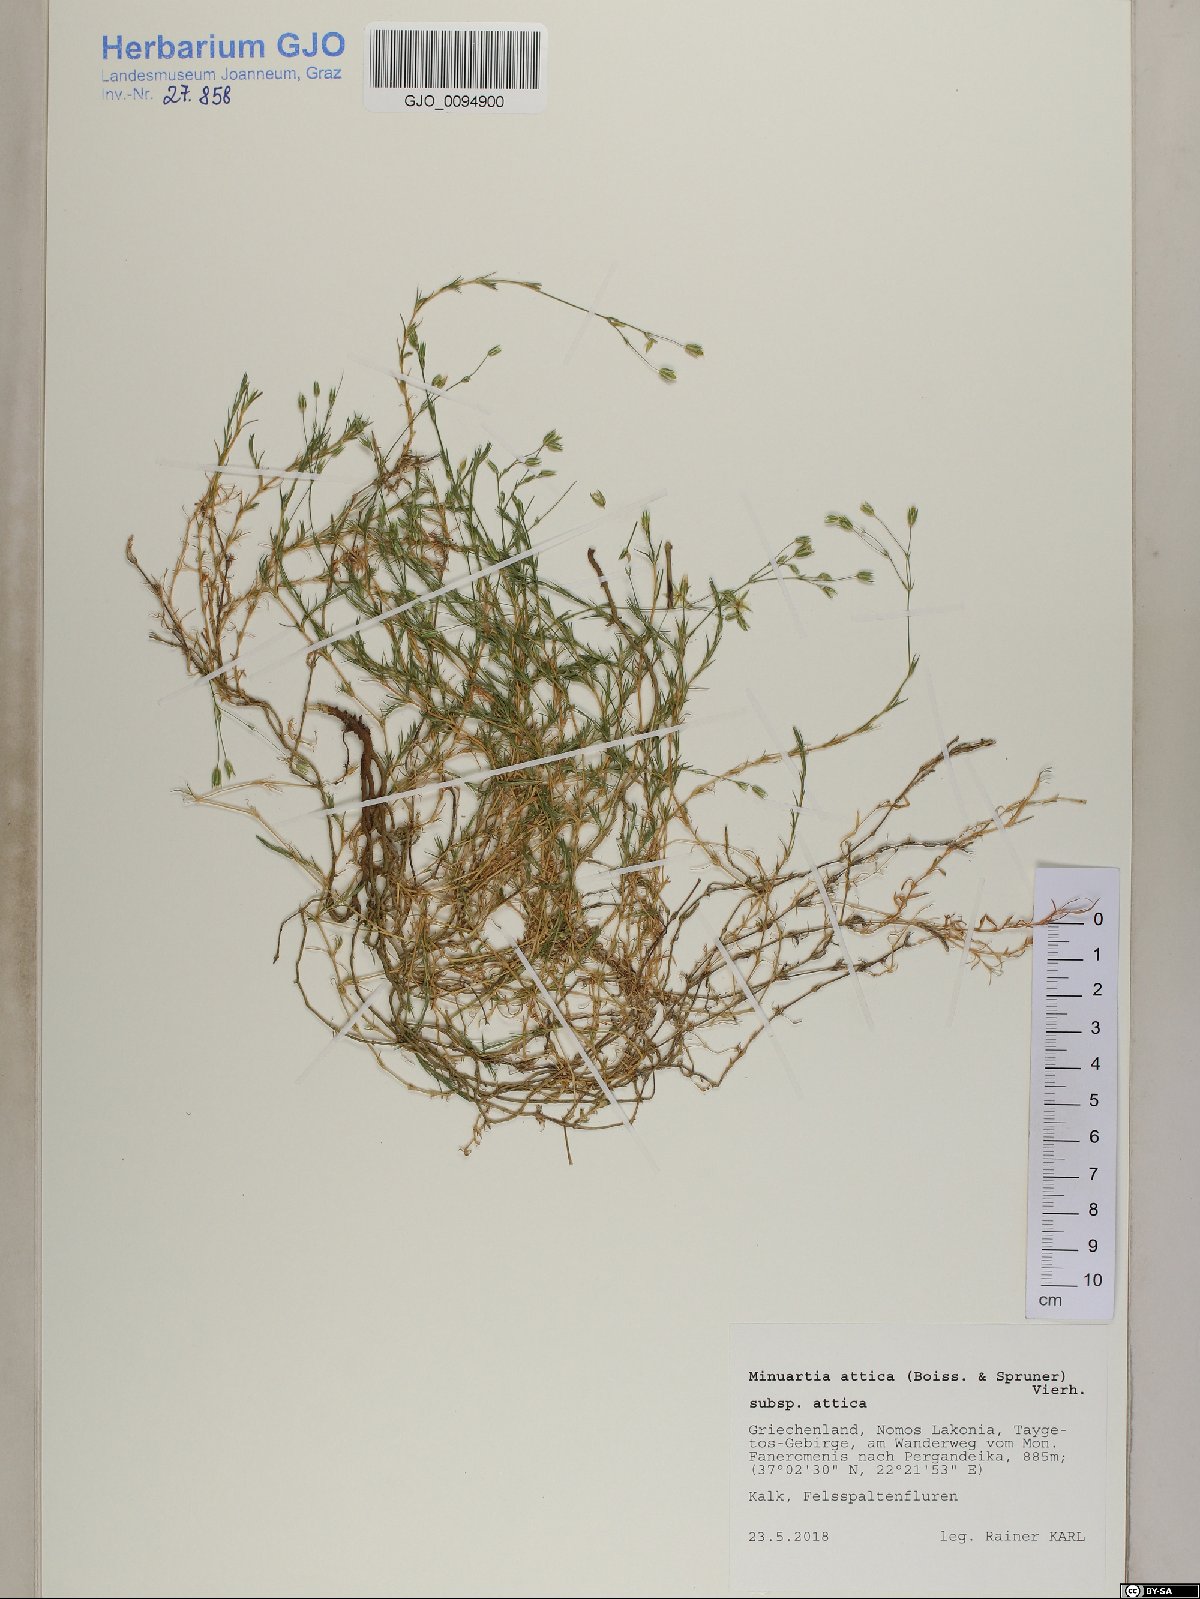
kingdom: Plantae
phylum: Tracheophyta
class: Magnoliopsida
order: Caryophyllales
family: Caryophyllaceae
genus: Sabulina
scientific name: Sabulina attica
